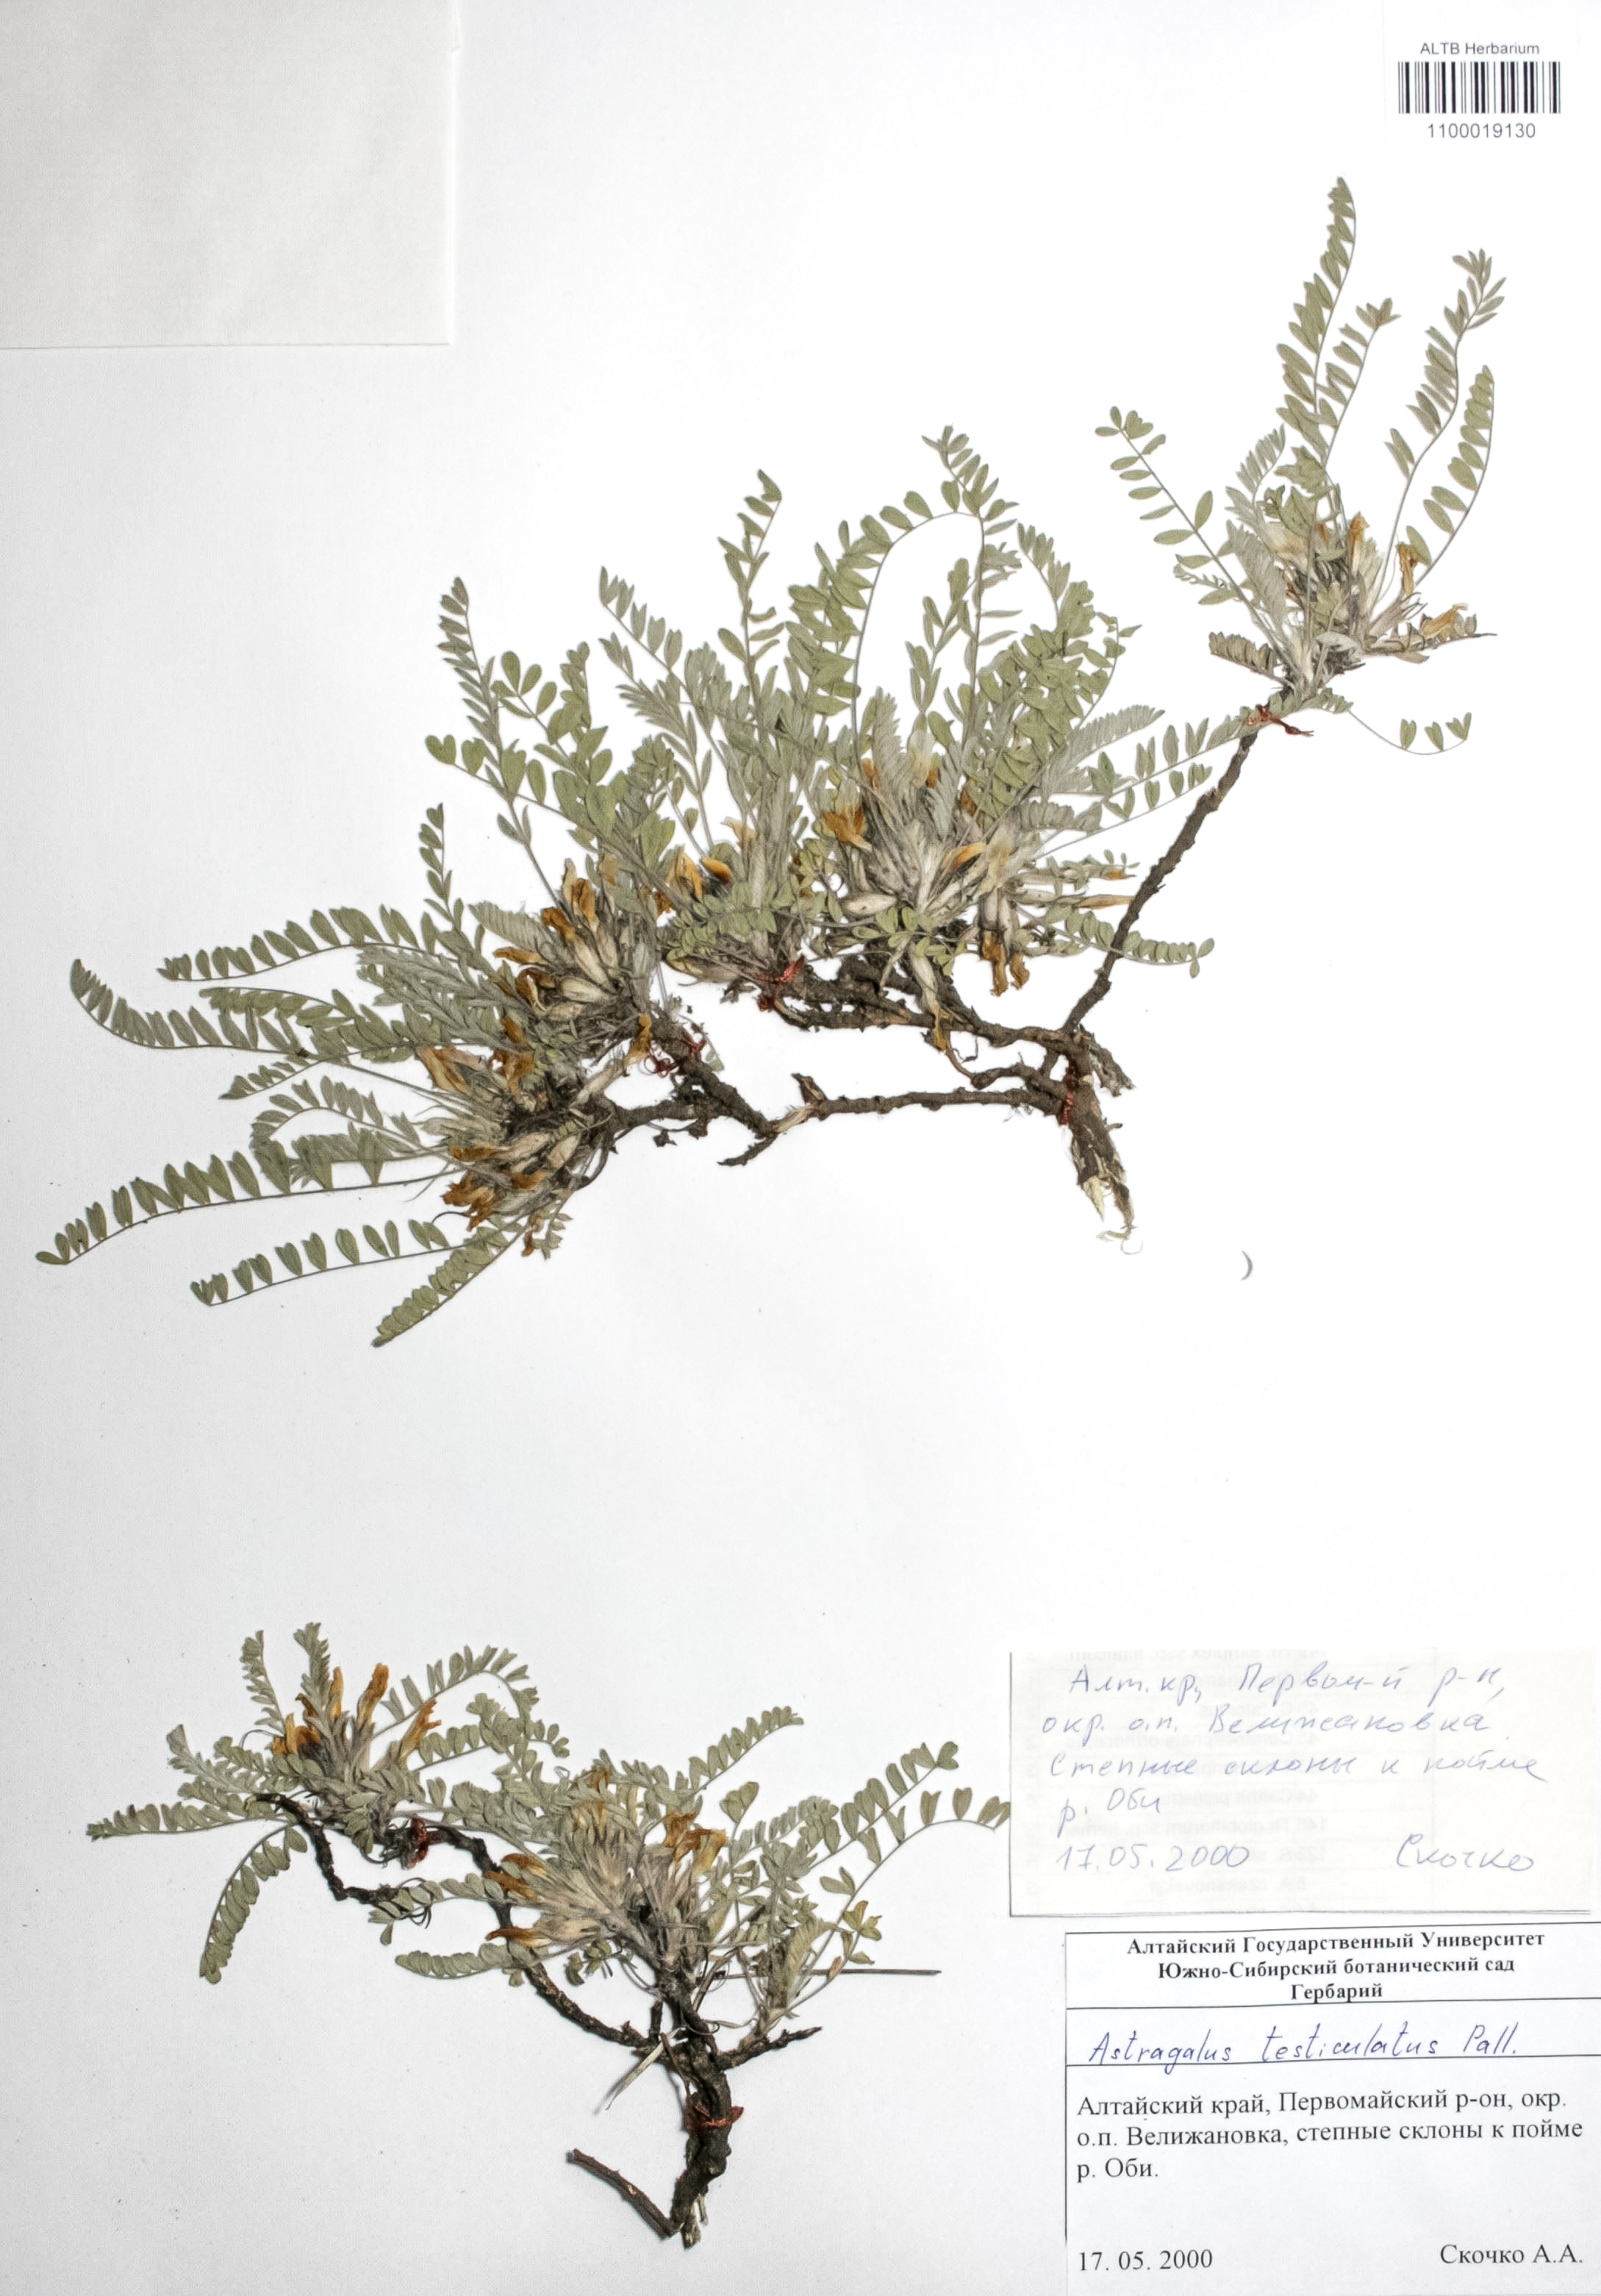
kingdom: Plantae
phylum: Tracheophyta
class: Magnoliopsida
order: Fabales
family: Fabaceae
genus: Astragalus
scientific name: Astragalus testiculatus
